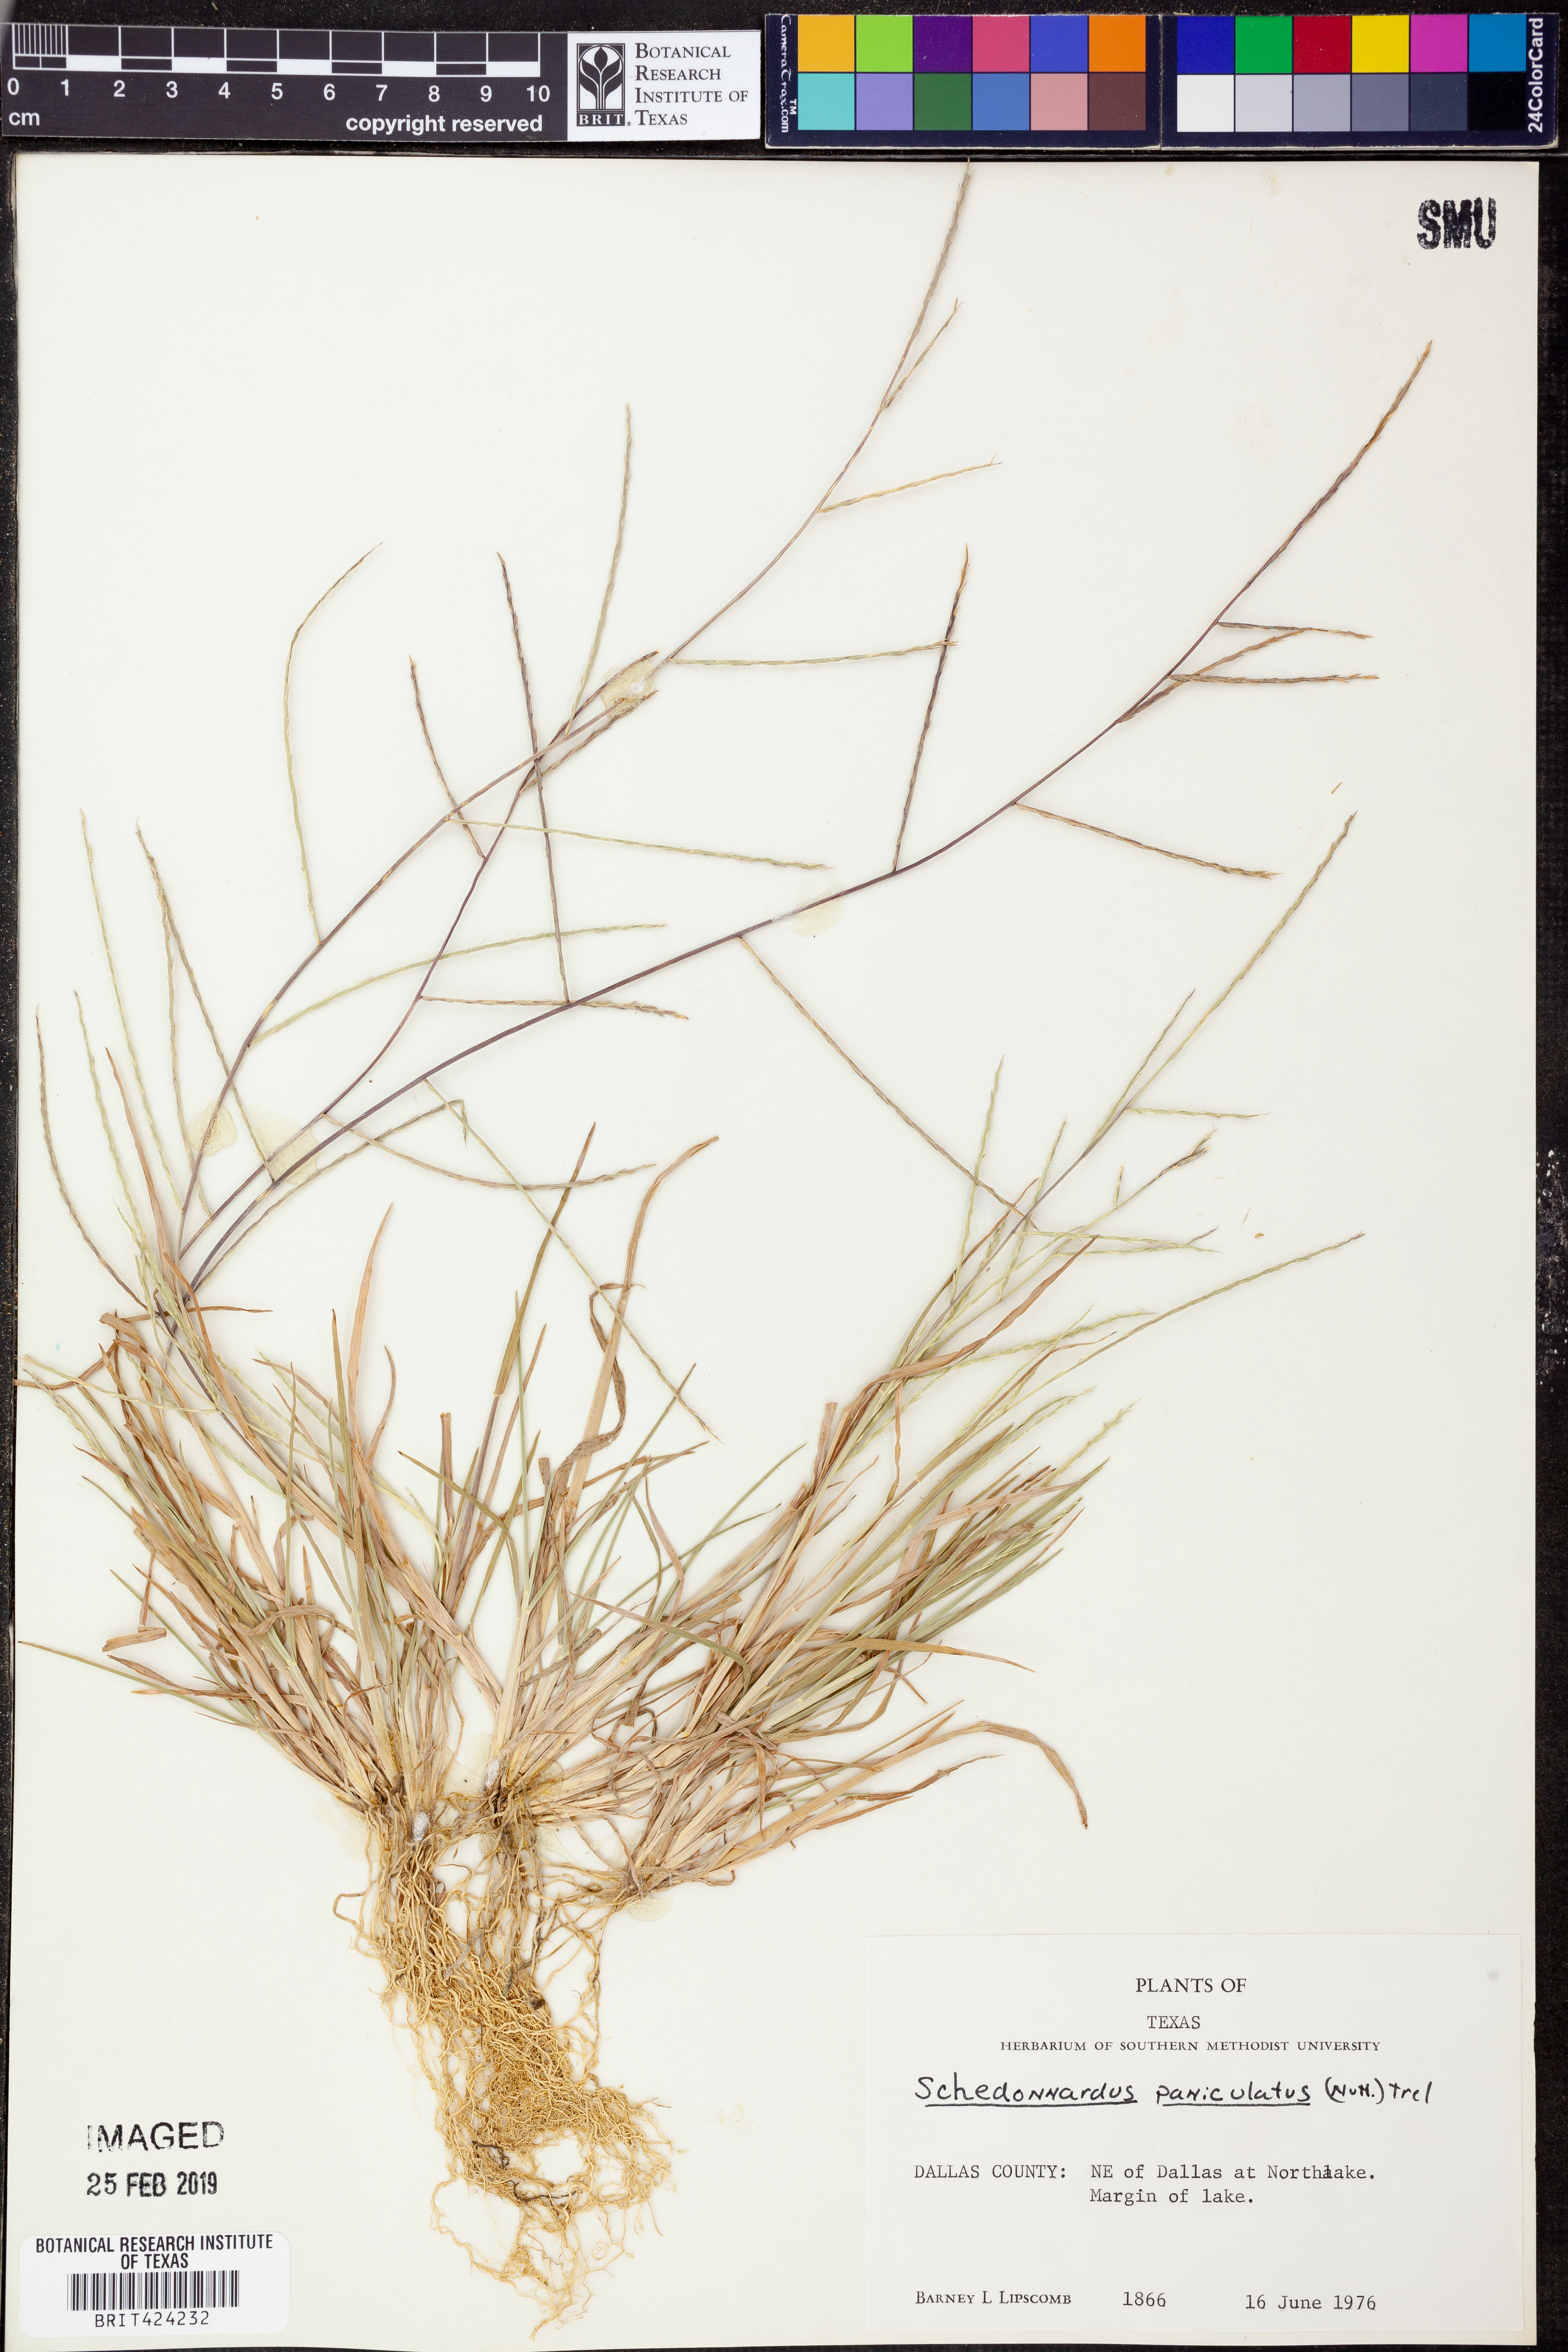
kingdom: Plantae
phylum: Tracheophyta
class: Liliopsida
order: Poales
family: Poaceae
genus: Muhlenbergia
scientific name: Muhlenbergia paniculata
